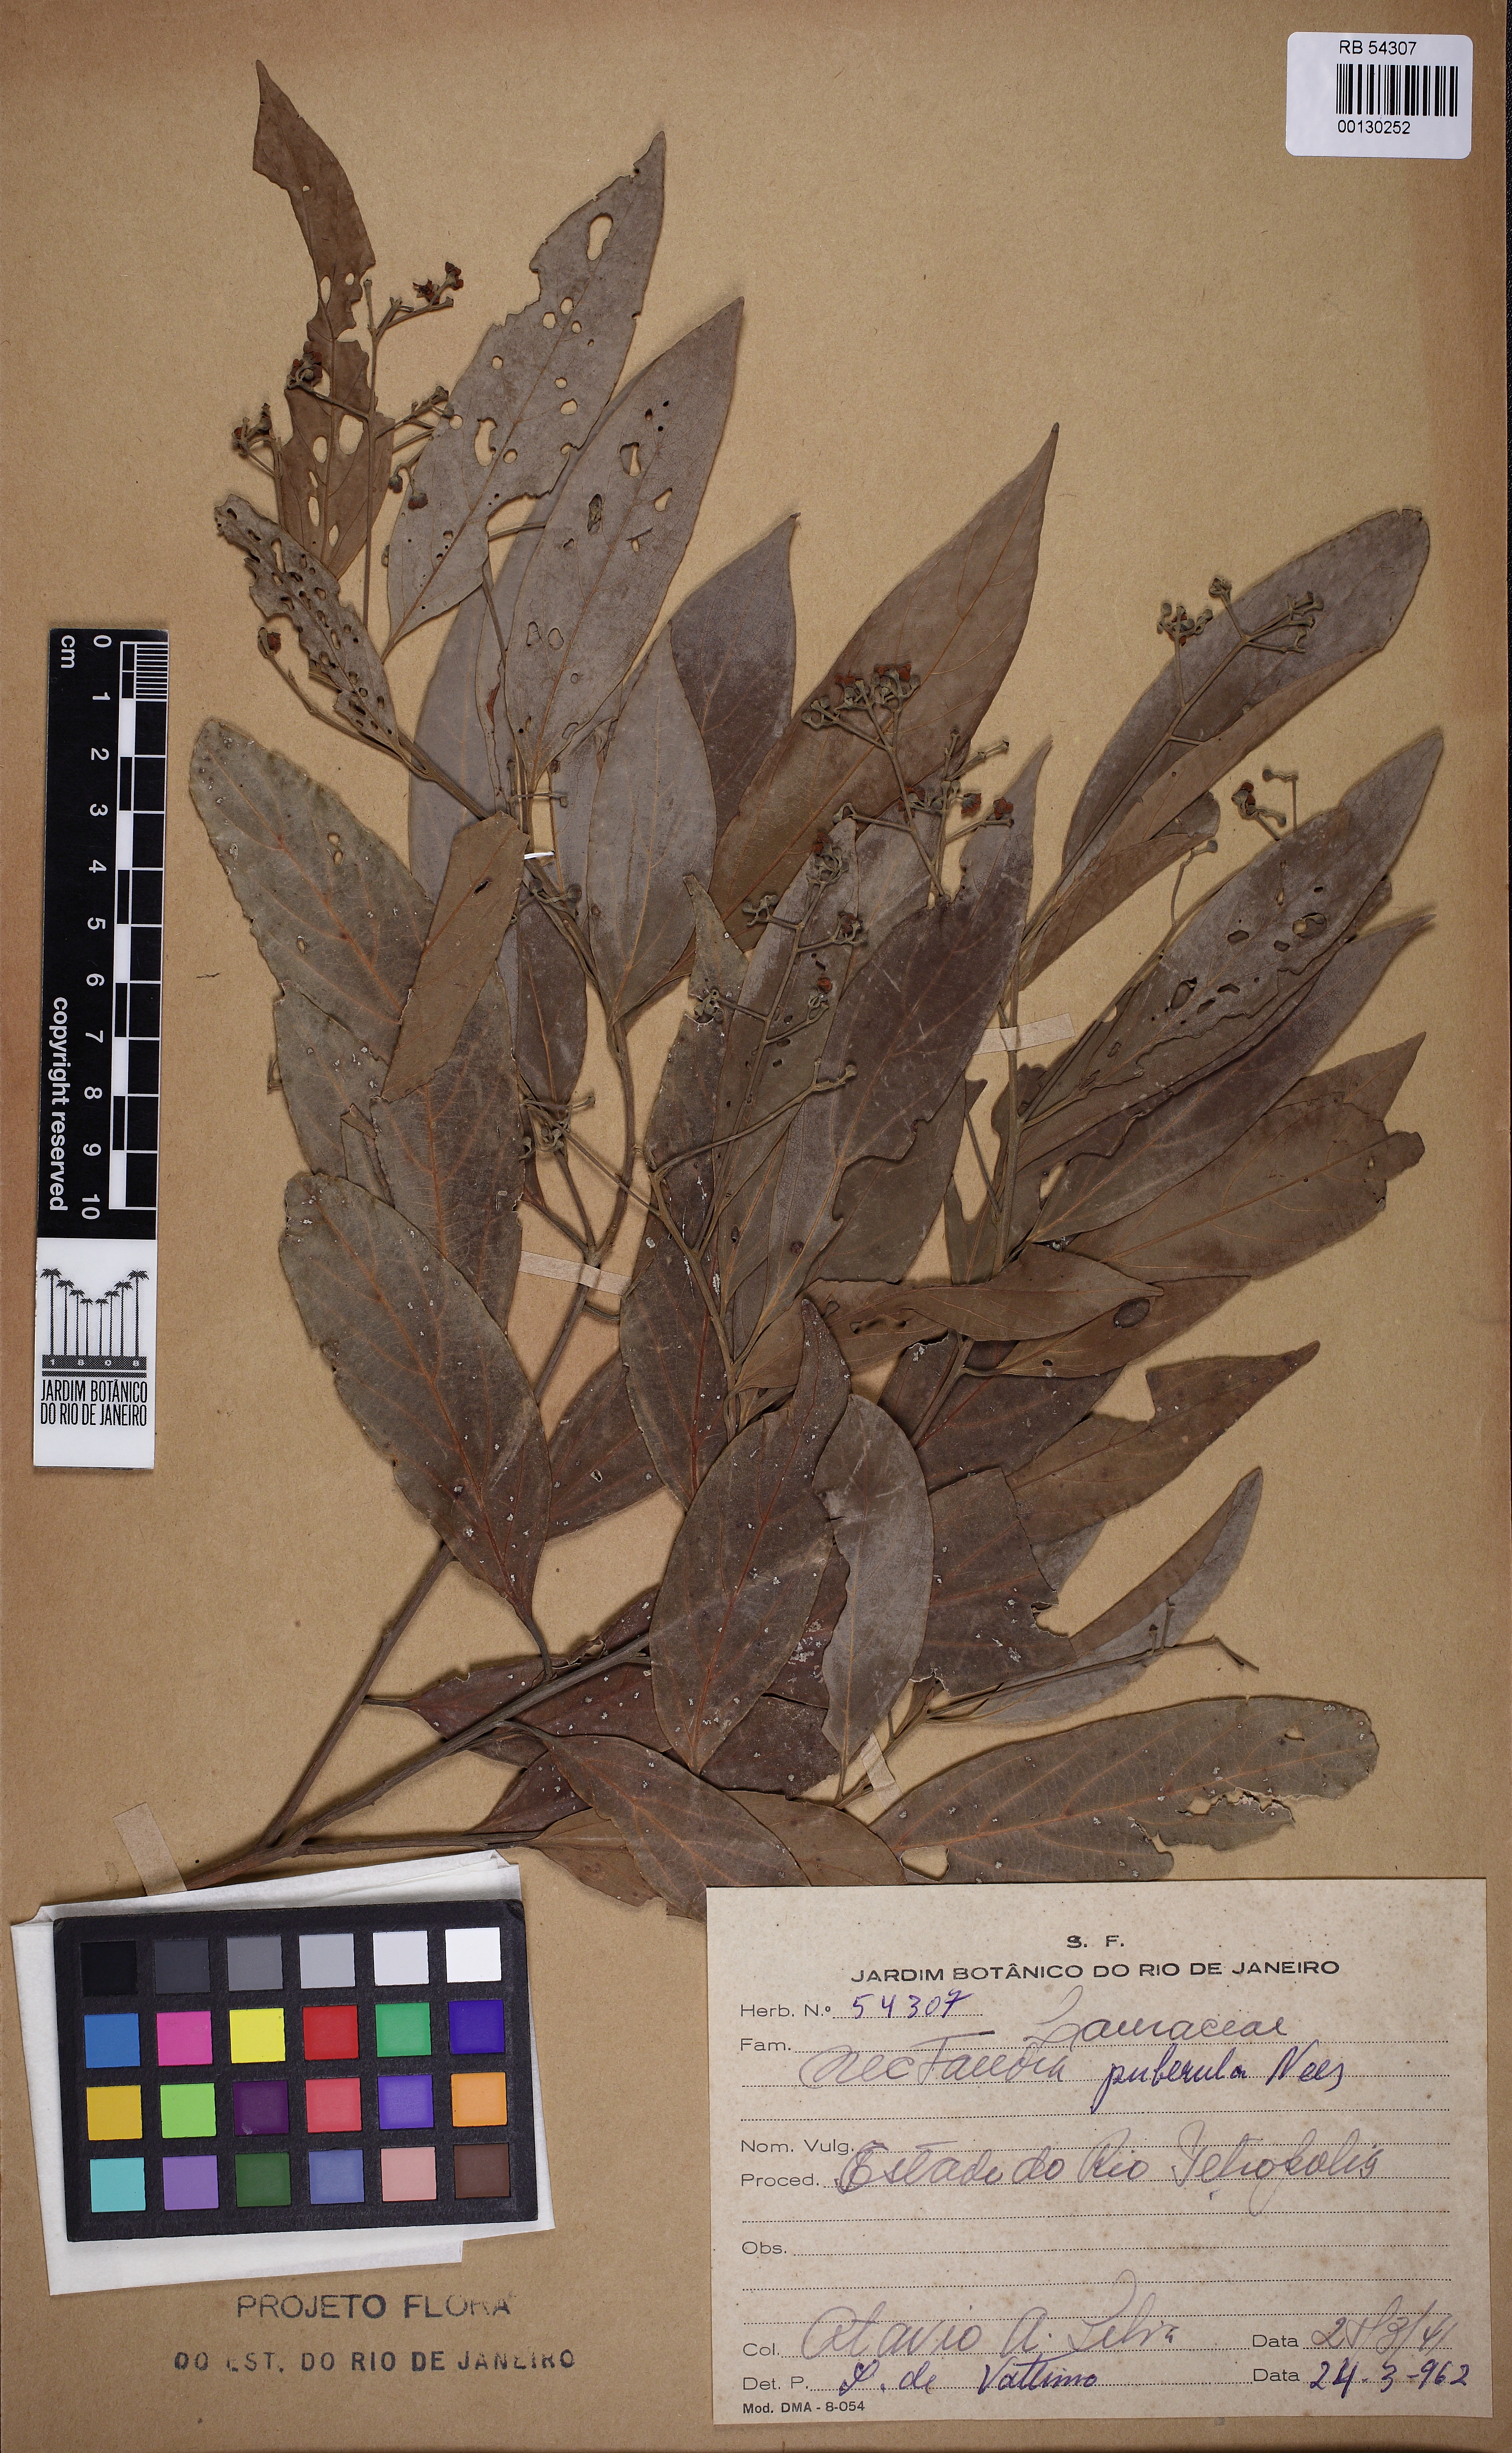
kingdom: Plantae
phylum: Tracheophyta
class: Magnoliopsida
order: Laurales
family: Lauraceae
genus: Nectandra
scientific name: Nectandra puberula
